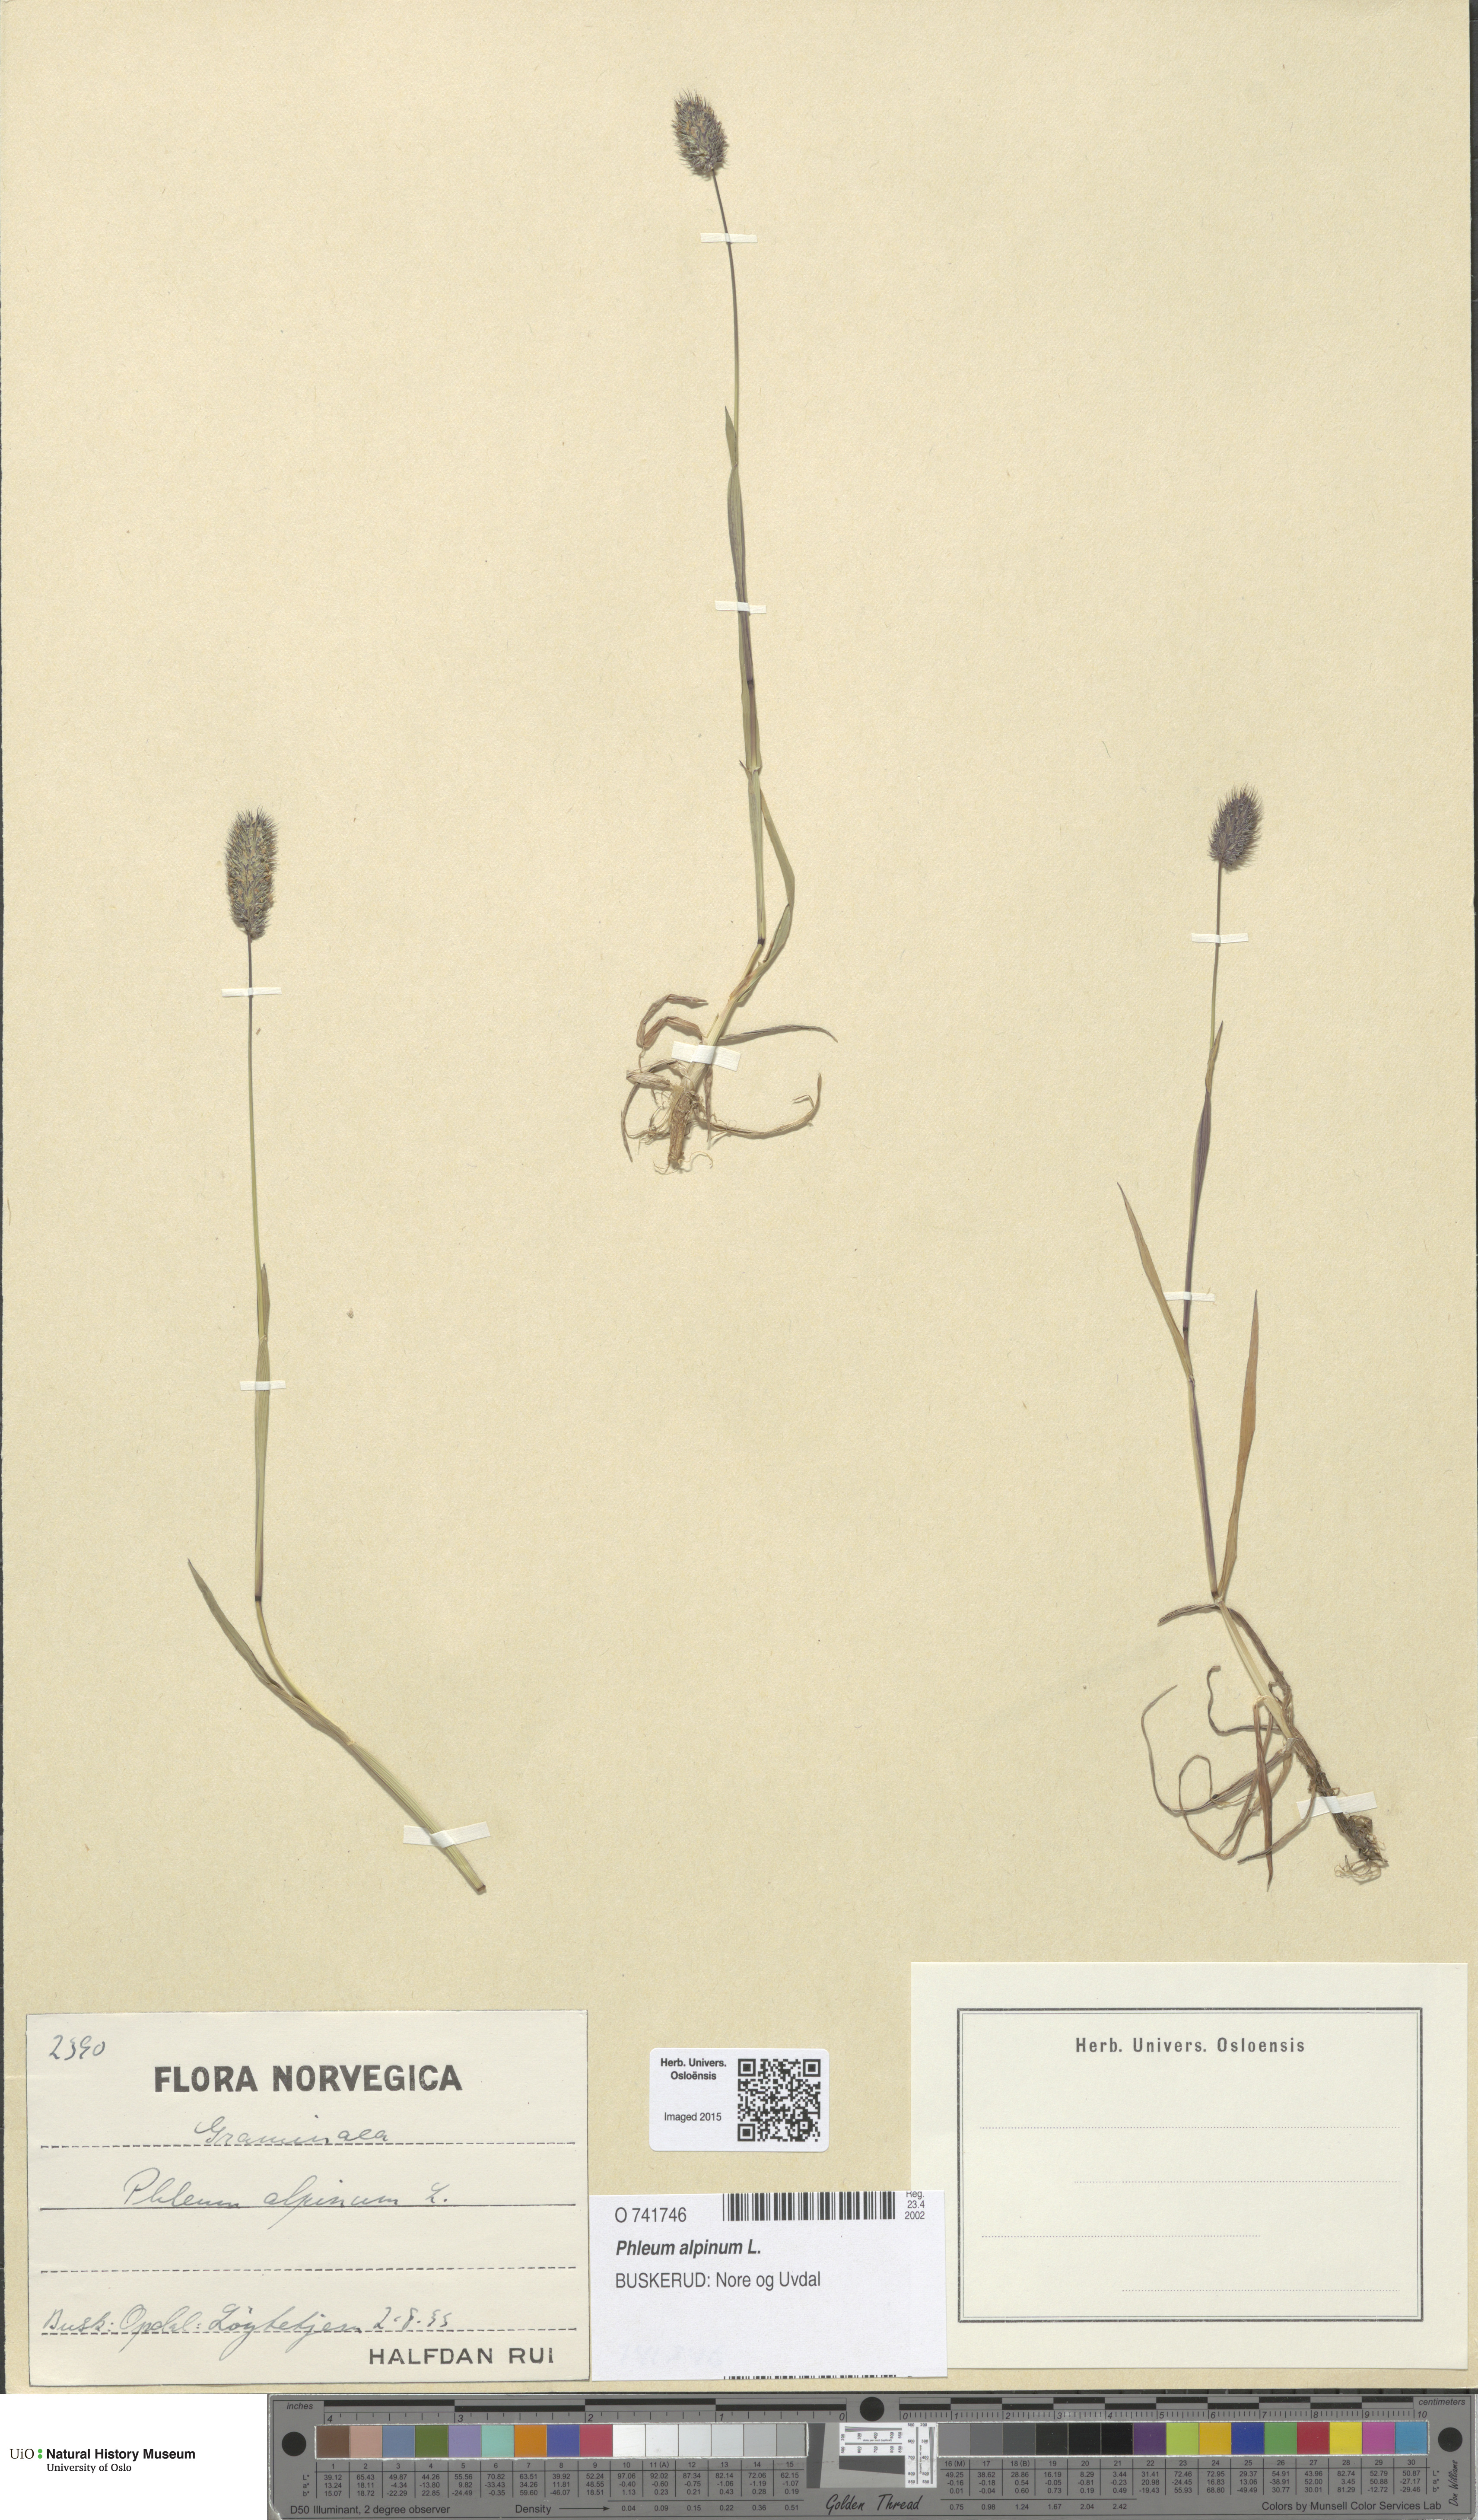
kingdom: Plantae
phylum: Tracheophyta
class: Liliopsida
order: Poales
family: Poaceae
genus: Phleum
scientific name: Phleum alpinum
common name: Alpine cat's-tail
